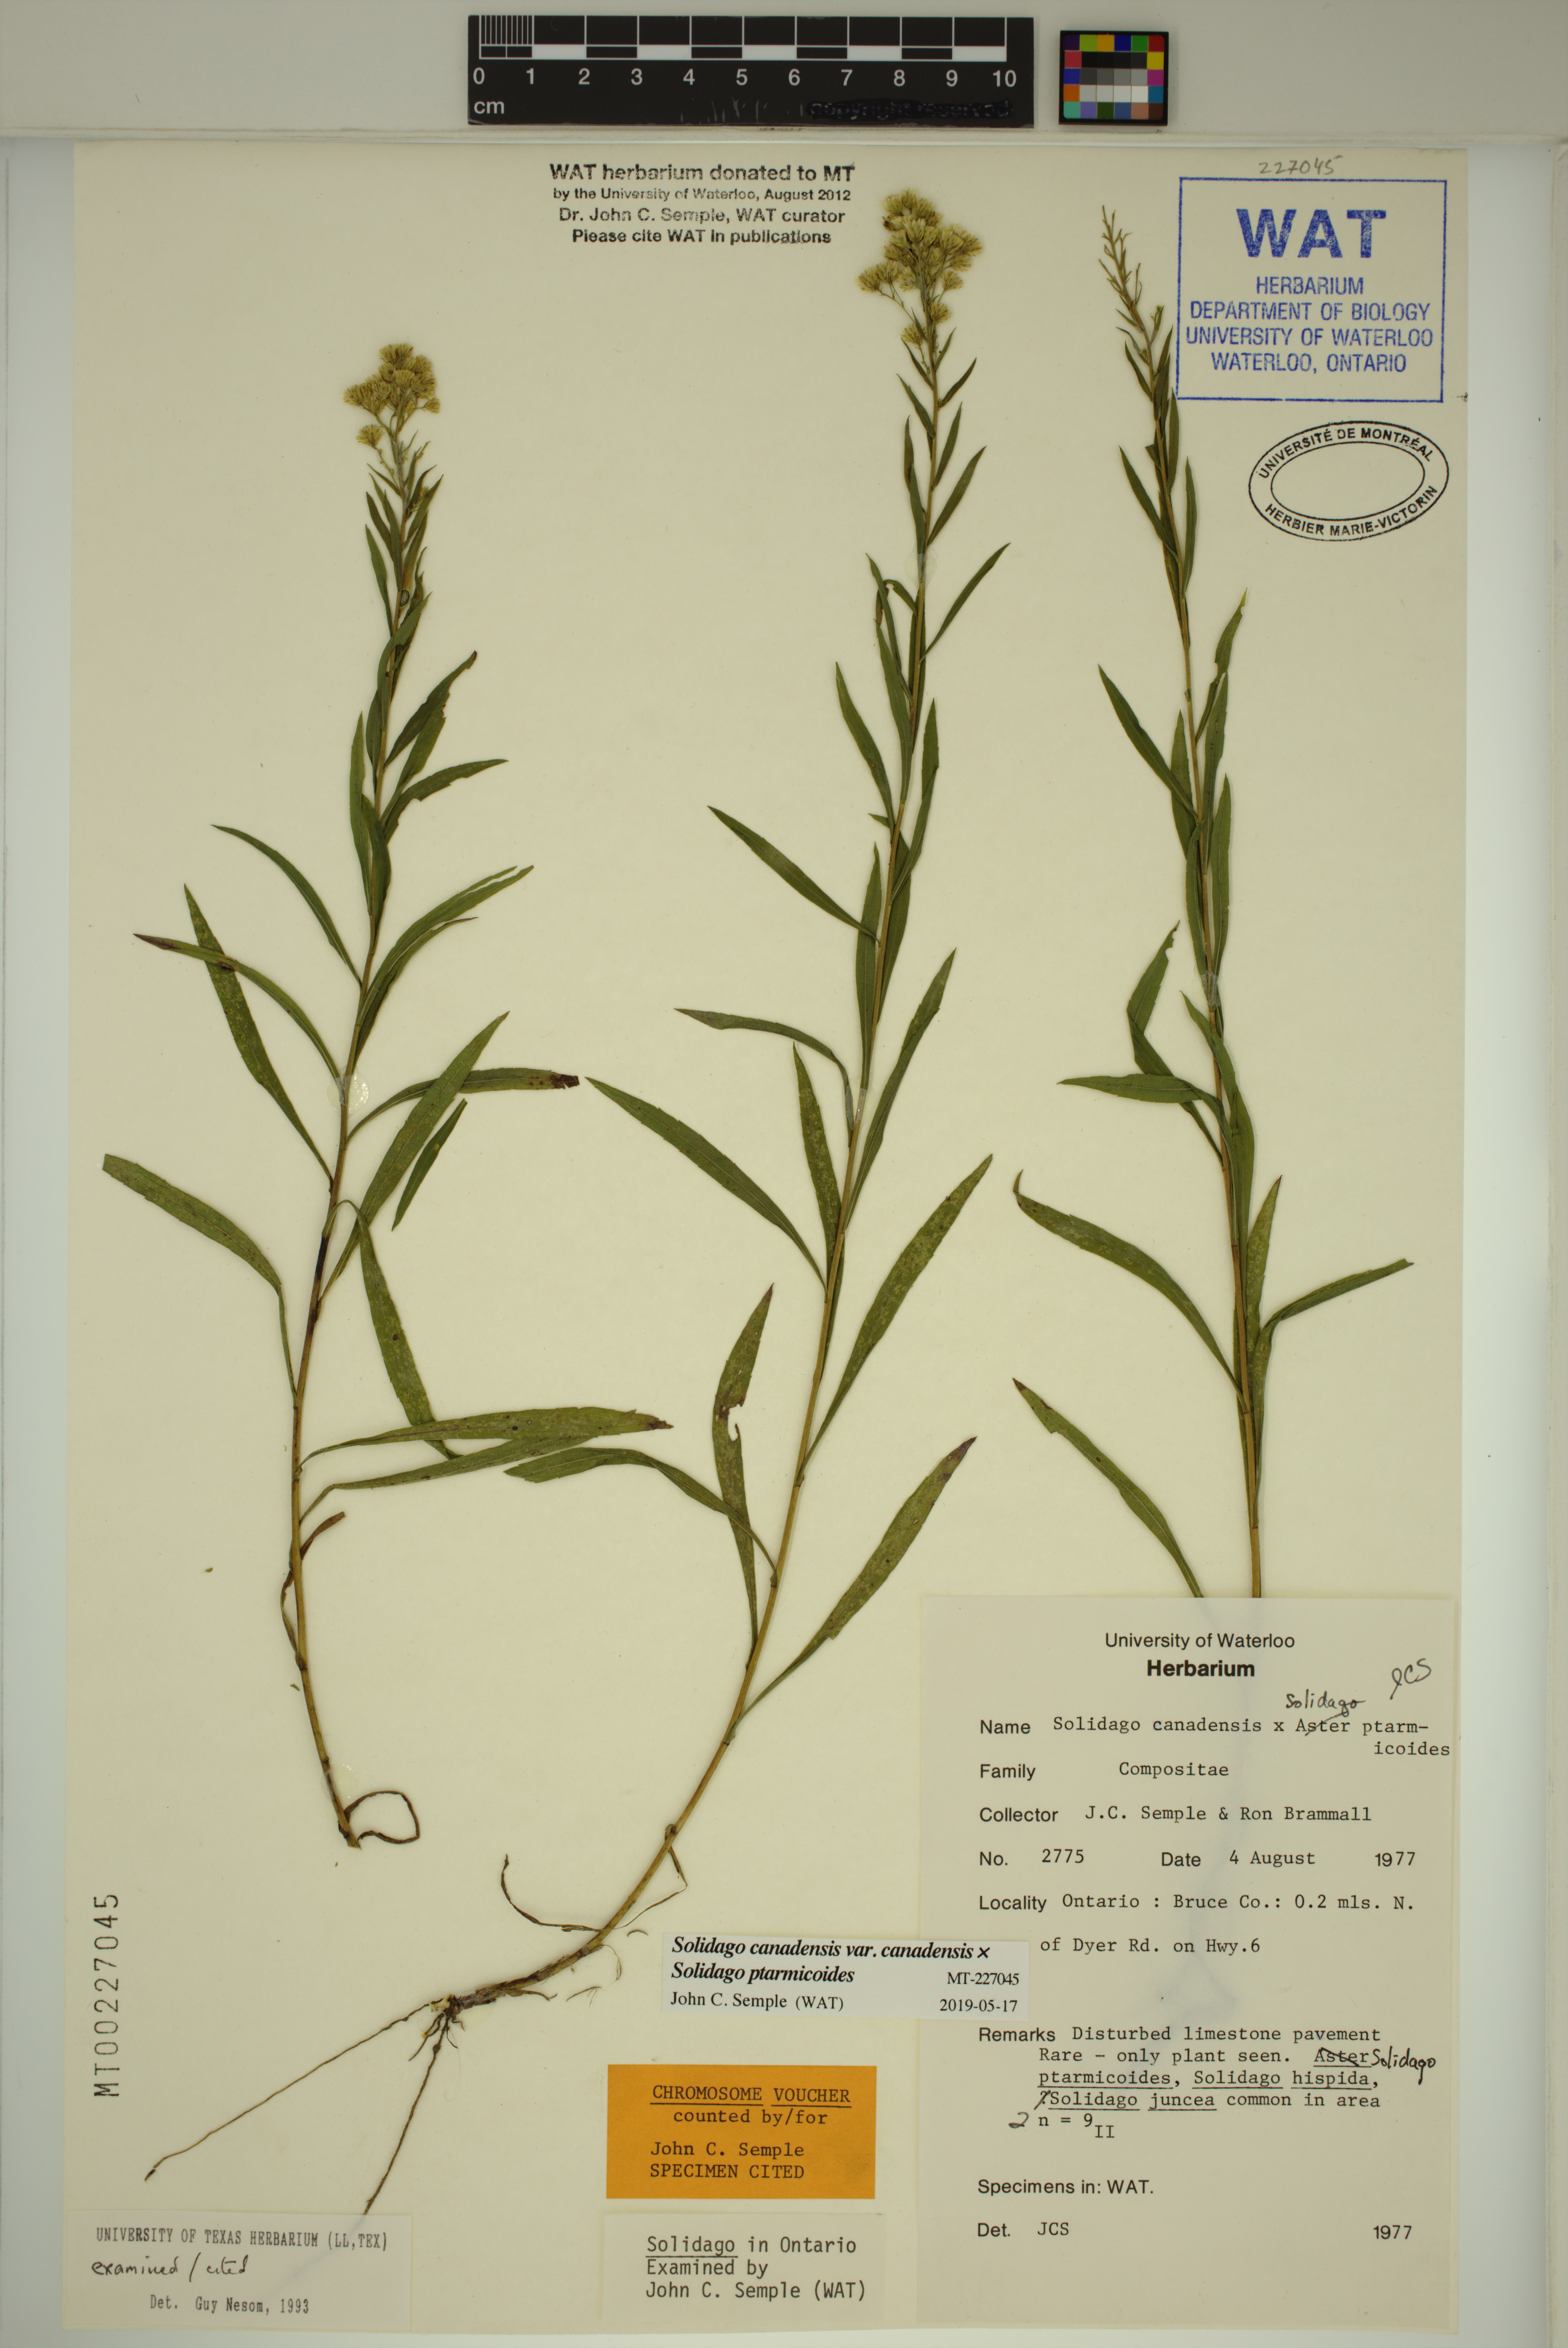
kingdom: Plantae
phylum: Tracheophyta
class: Magnoliopsida
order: Asterales
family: Asteraceae
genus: Solidago
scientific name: Solidago canadensis
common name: Canada goldenrod
